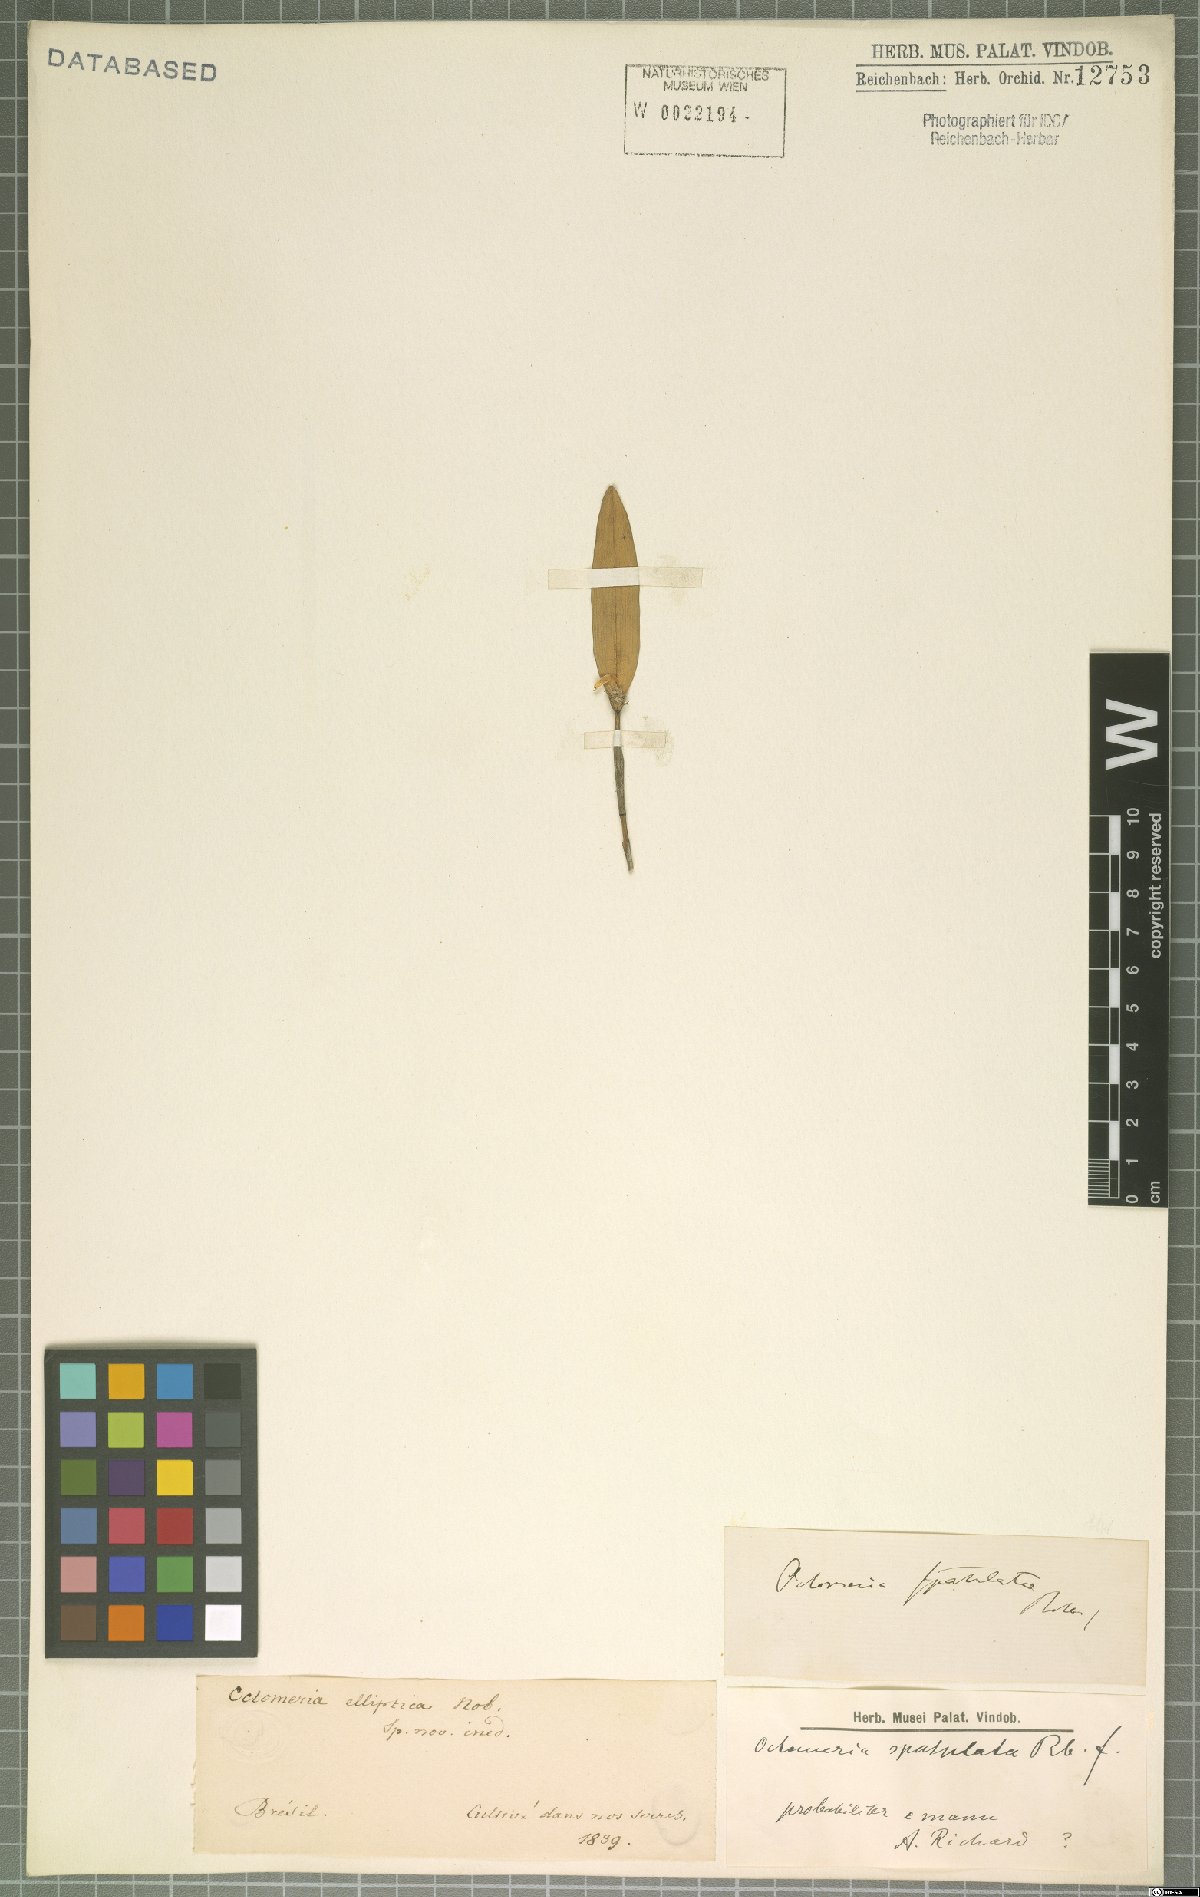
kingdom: Plantae
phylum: Tracheophyta
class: Liliopsida
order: Asparagales
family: Orchidaceae
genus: Octomeria
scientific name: Octomeria spatulata
